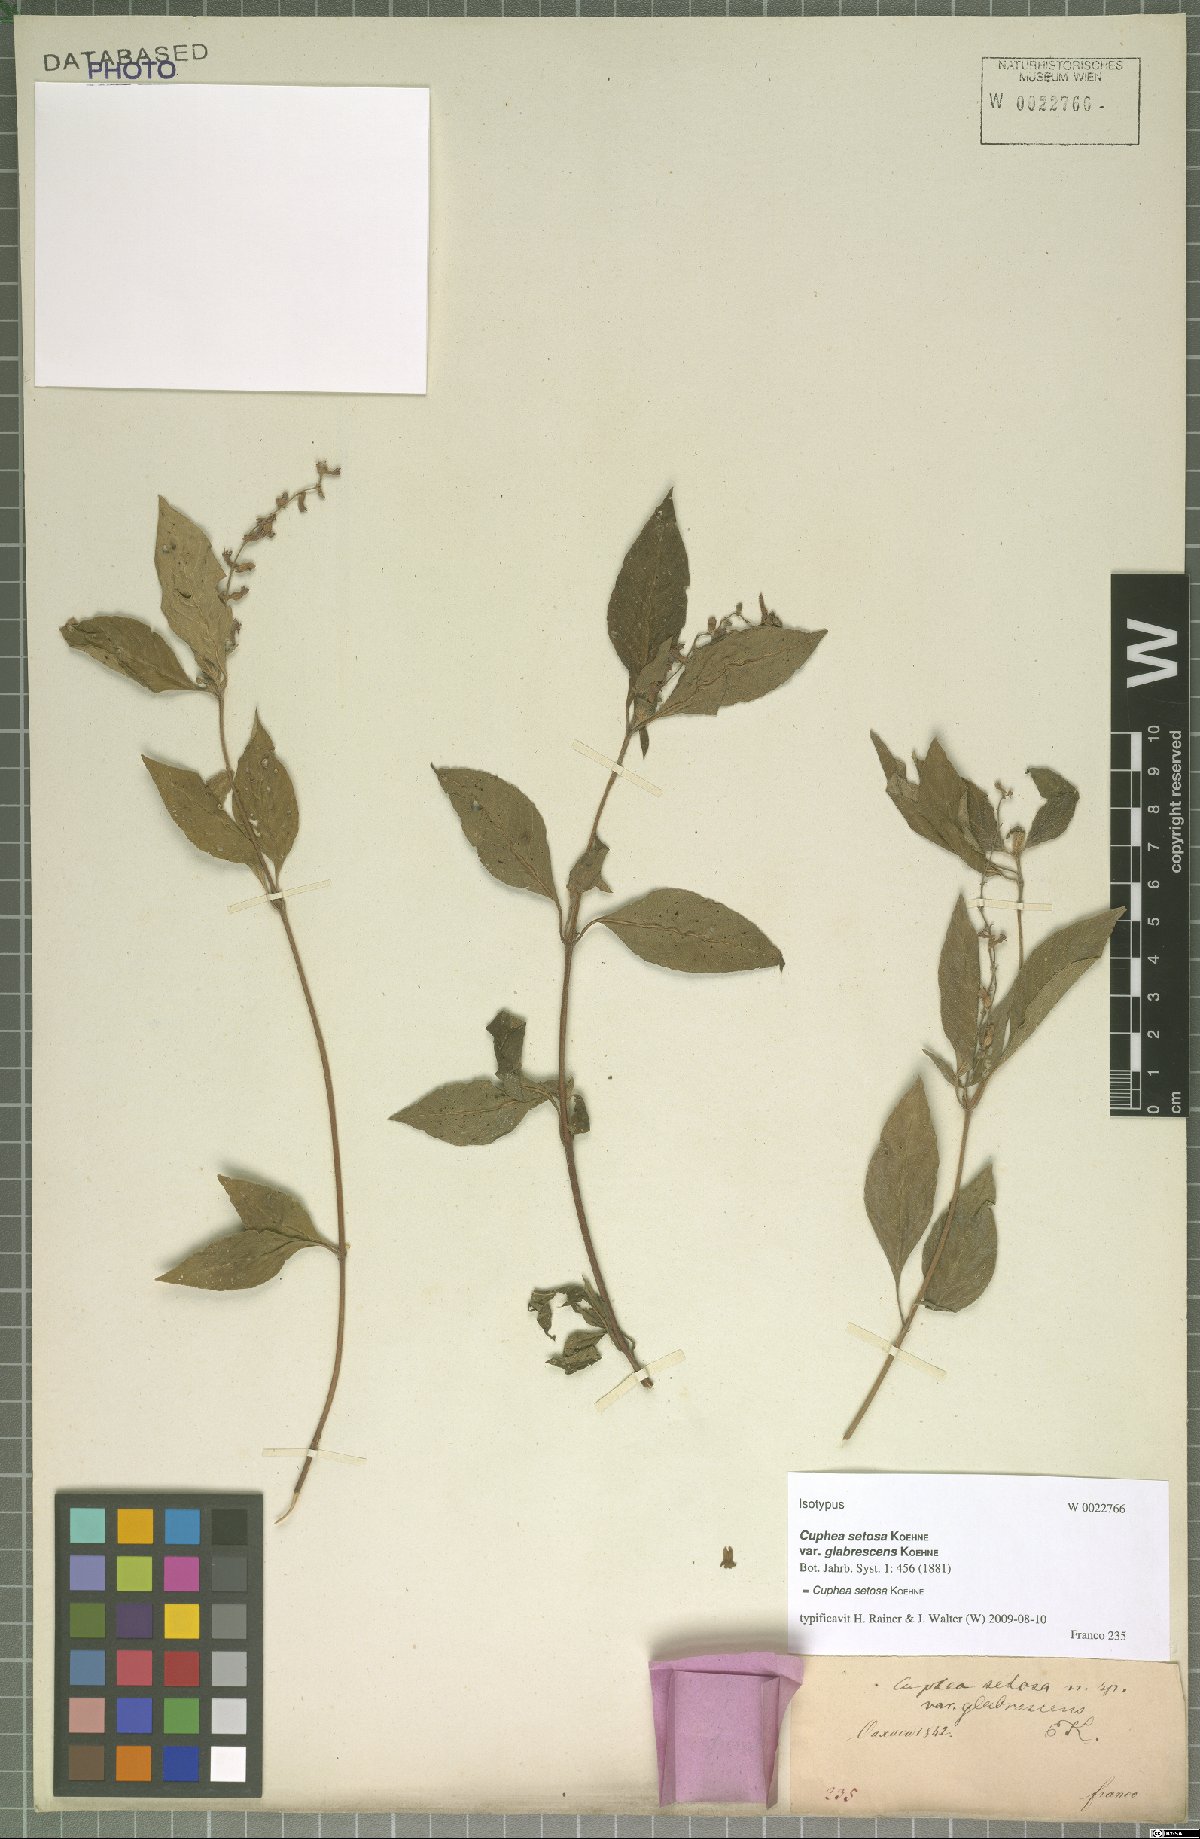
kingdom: Plantae
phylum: Tracheophyta
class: Magnoliopsida
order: Myrtales
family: Lythraceae
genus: Cuphea
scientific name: Cuphea setosa
